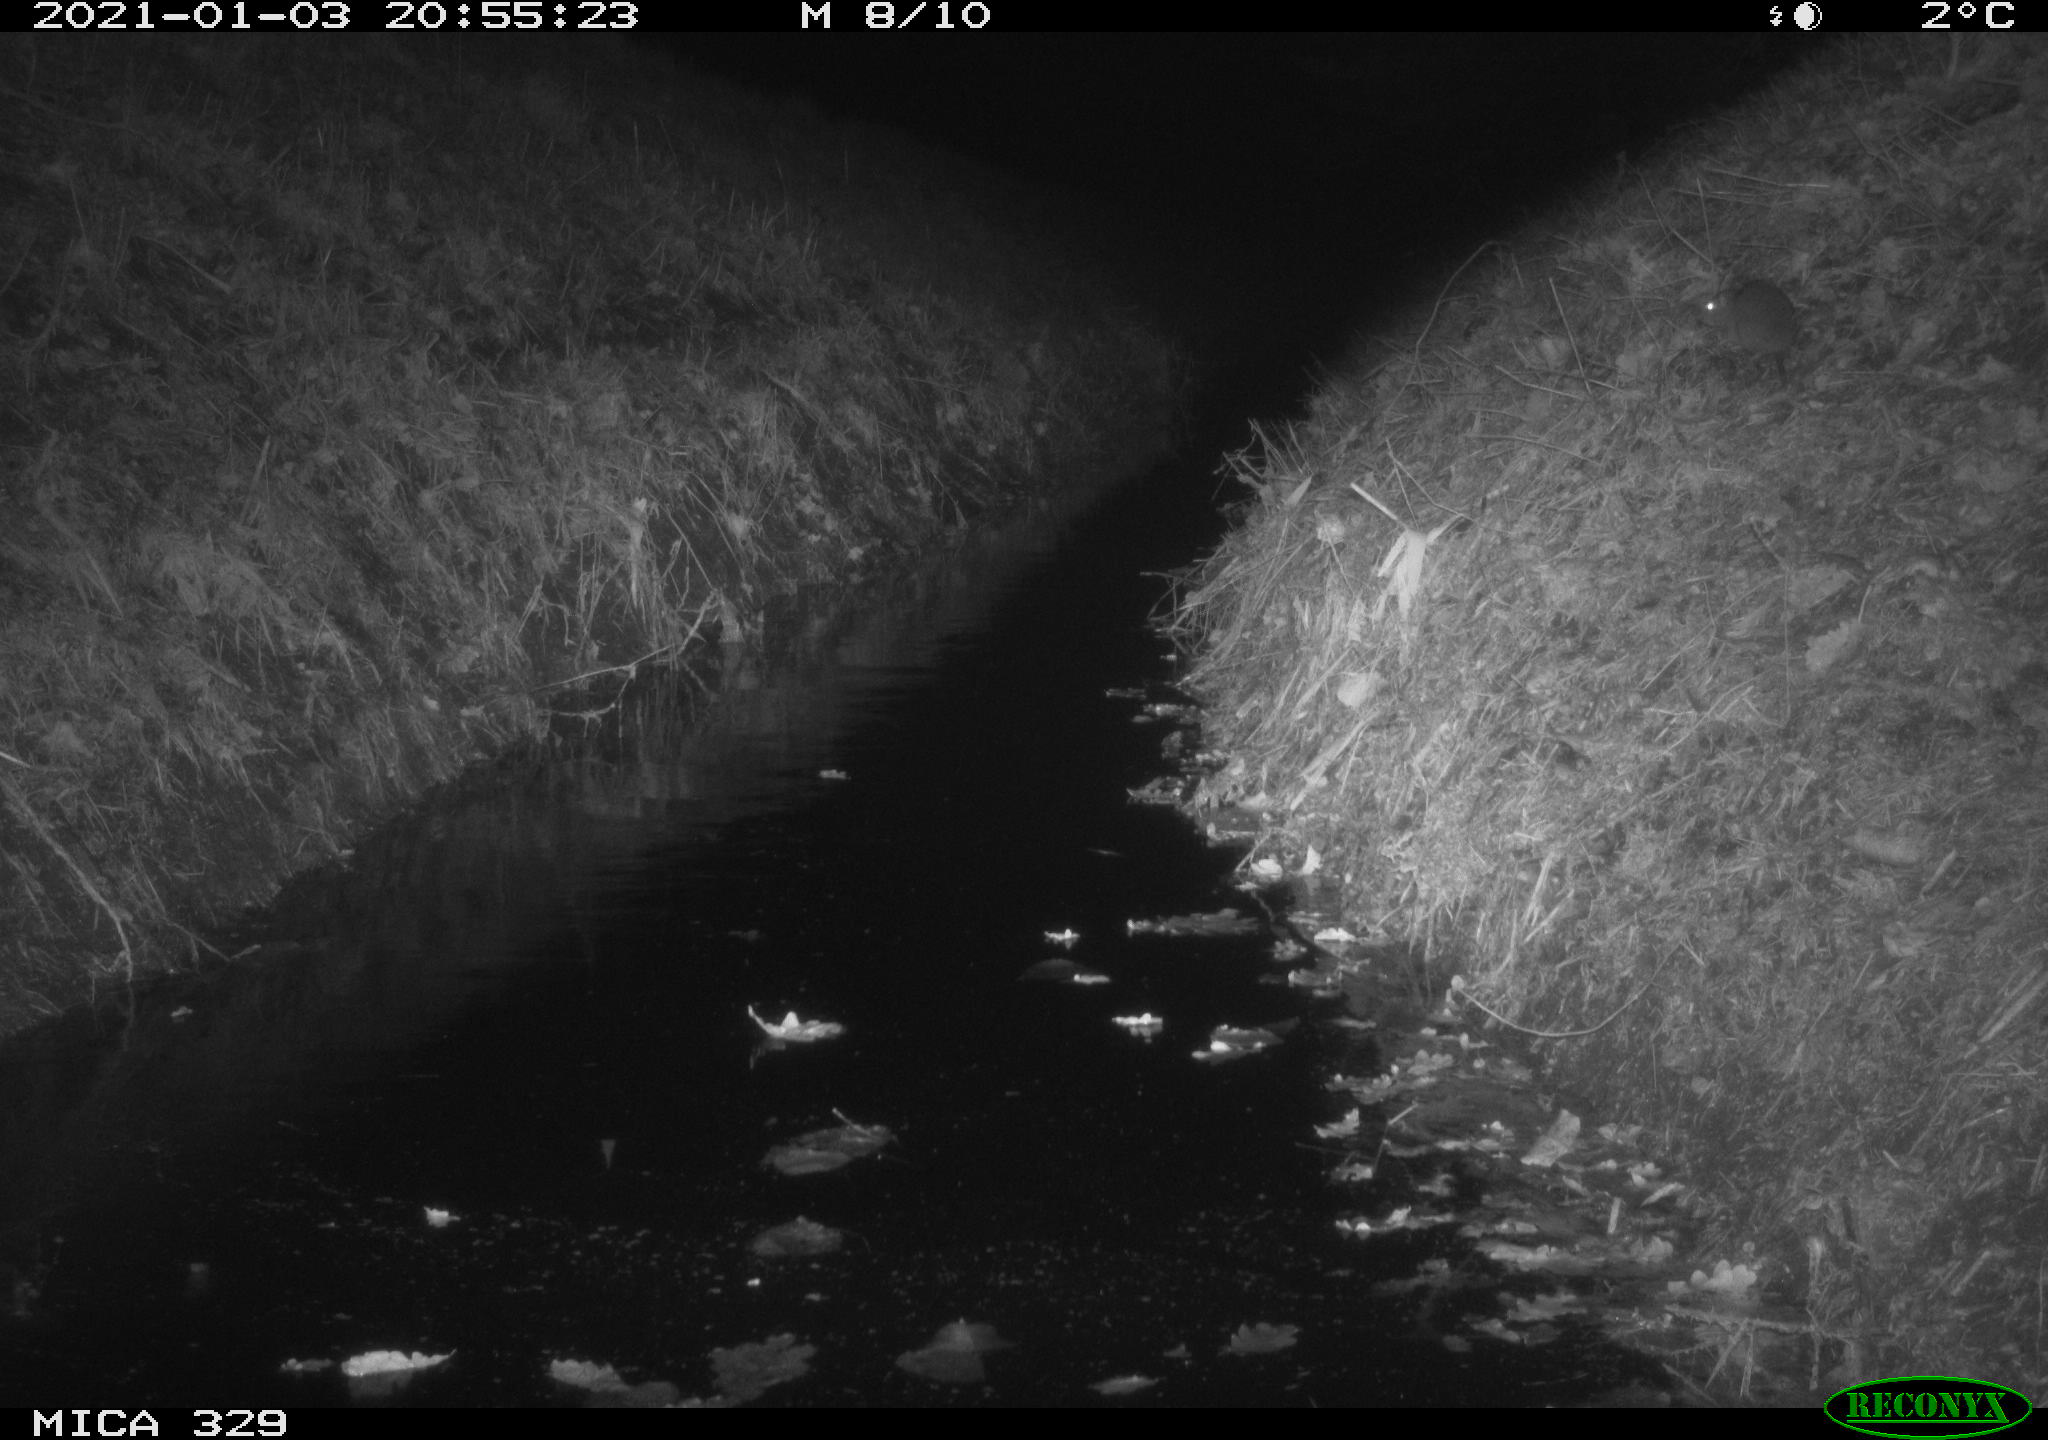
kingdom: Animalia
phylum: Chordata
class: Mammalia
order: Rodentia
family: Muridae
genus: Rattus
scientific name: Rattus norvegicus
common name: Brown rat
